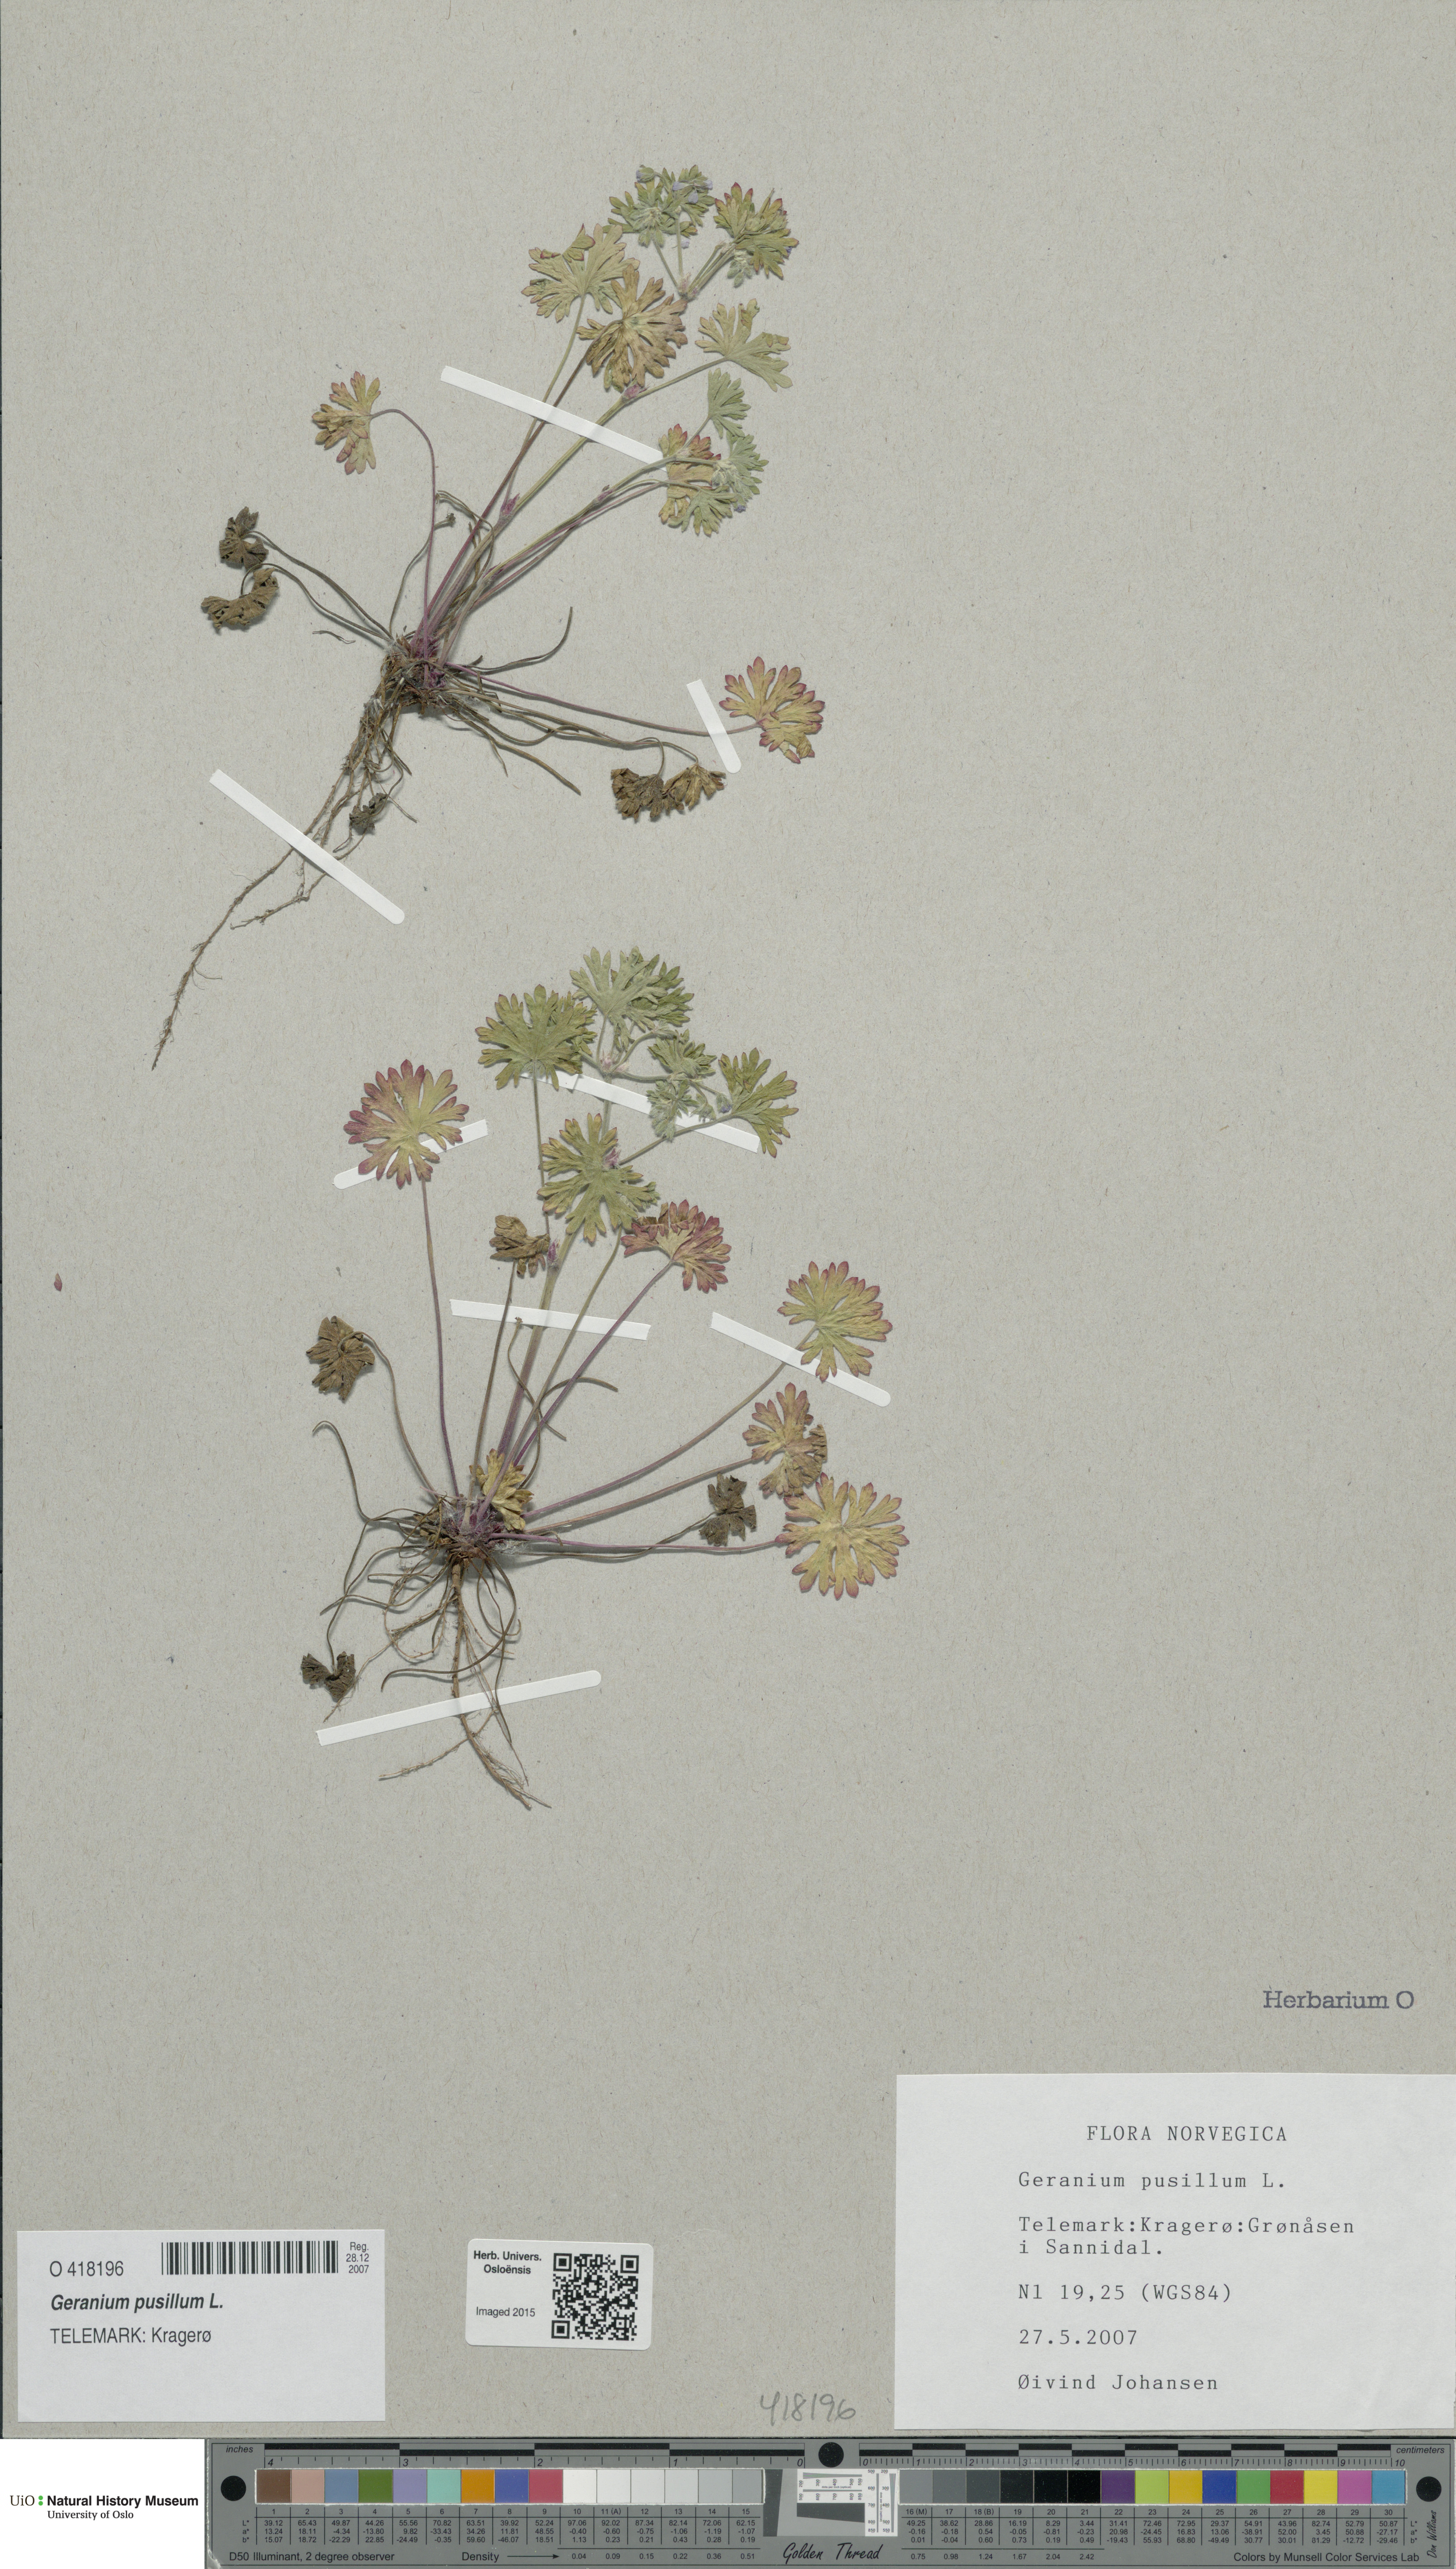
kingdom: Plantae
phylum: Tracheophyta
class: Magnoliopsida
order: Geraniales
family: Geraniaceae
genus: Geranium
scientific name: Geranium pusillum
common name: Small geranium
